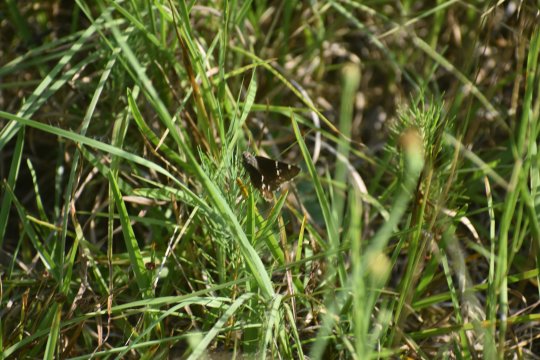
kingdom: Animalia
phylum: Arthropoda
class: Insecta
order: Lepidoptera
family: Hesperiidae
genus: Autochton
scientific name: Autochton
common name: Southern Cloudywing
